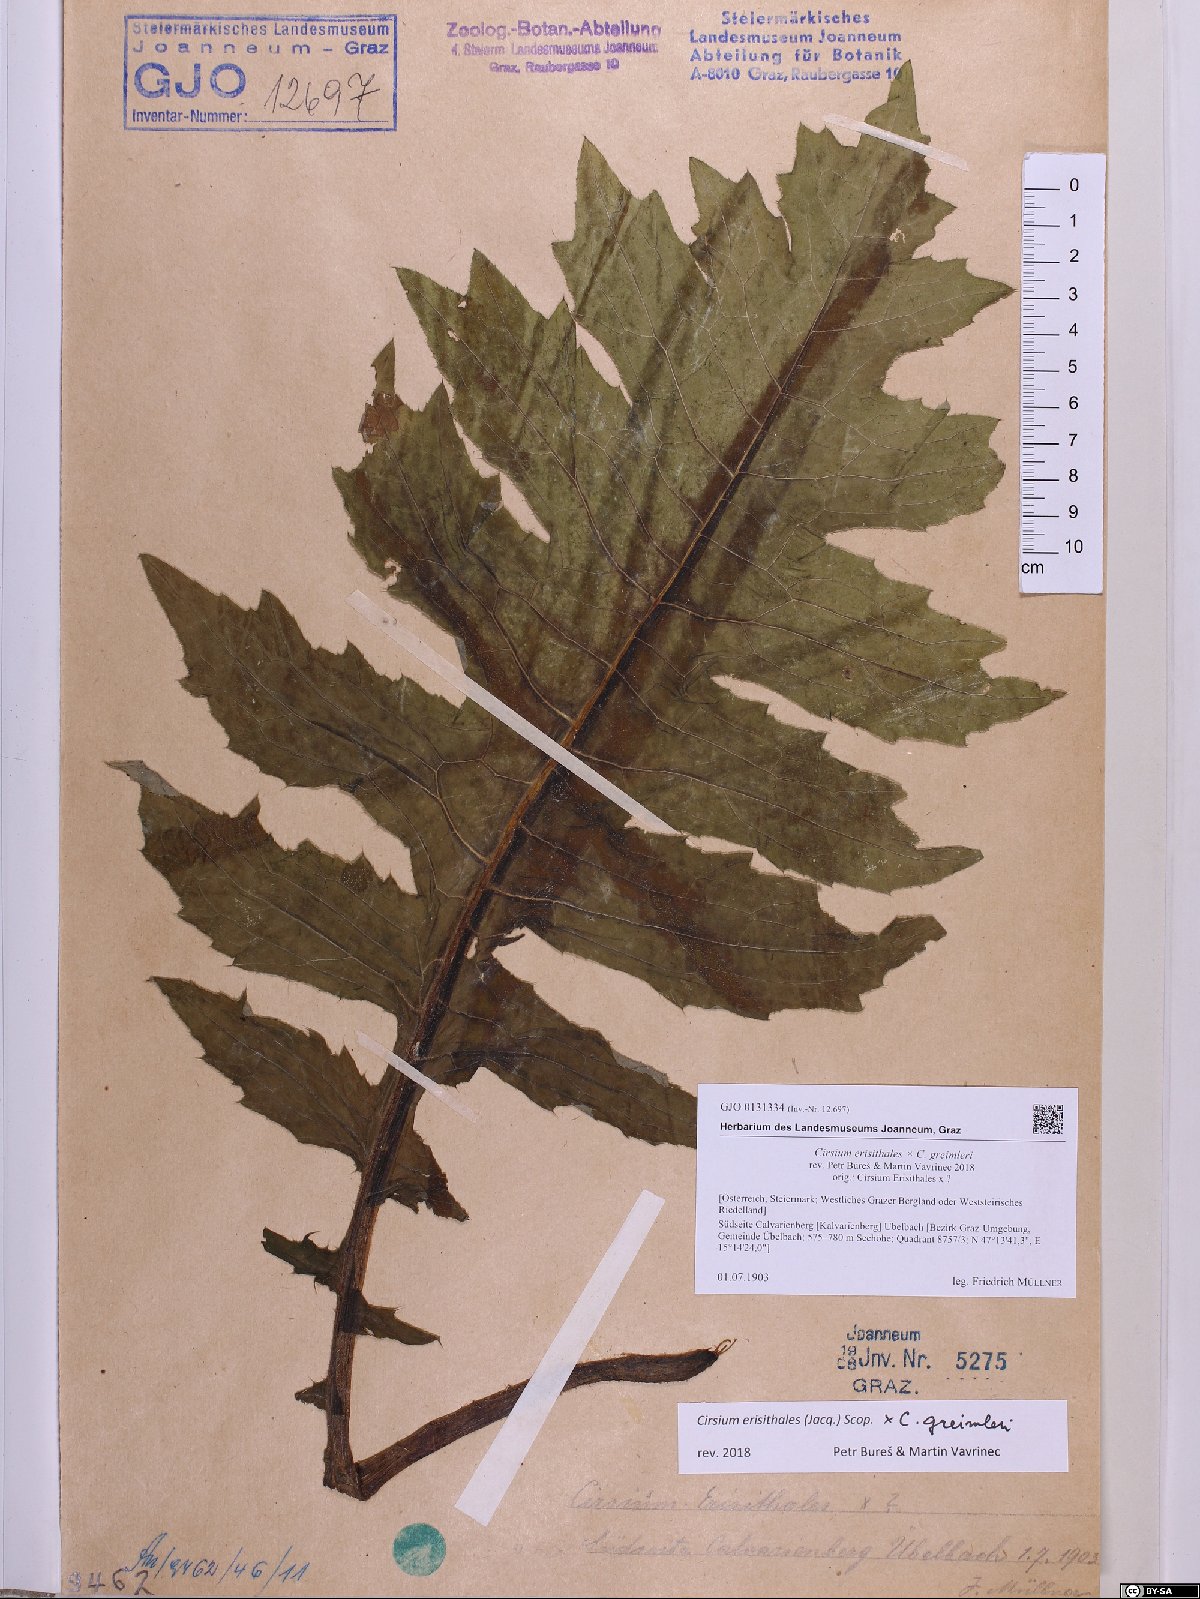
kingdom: Plantae
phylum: Tracheophyta
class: Magnoliopsida
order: Asterales
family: Asteraceae
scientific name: Asteraceae
